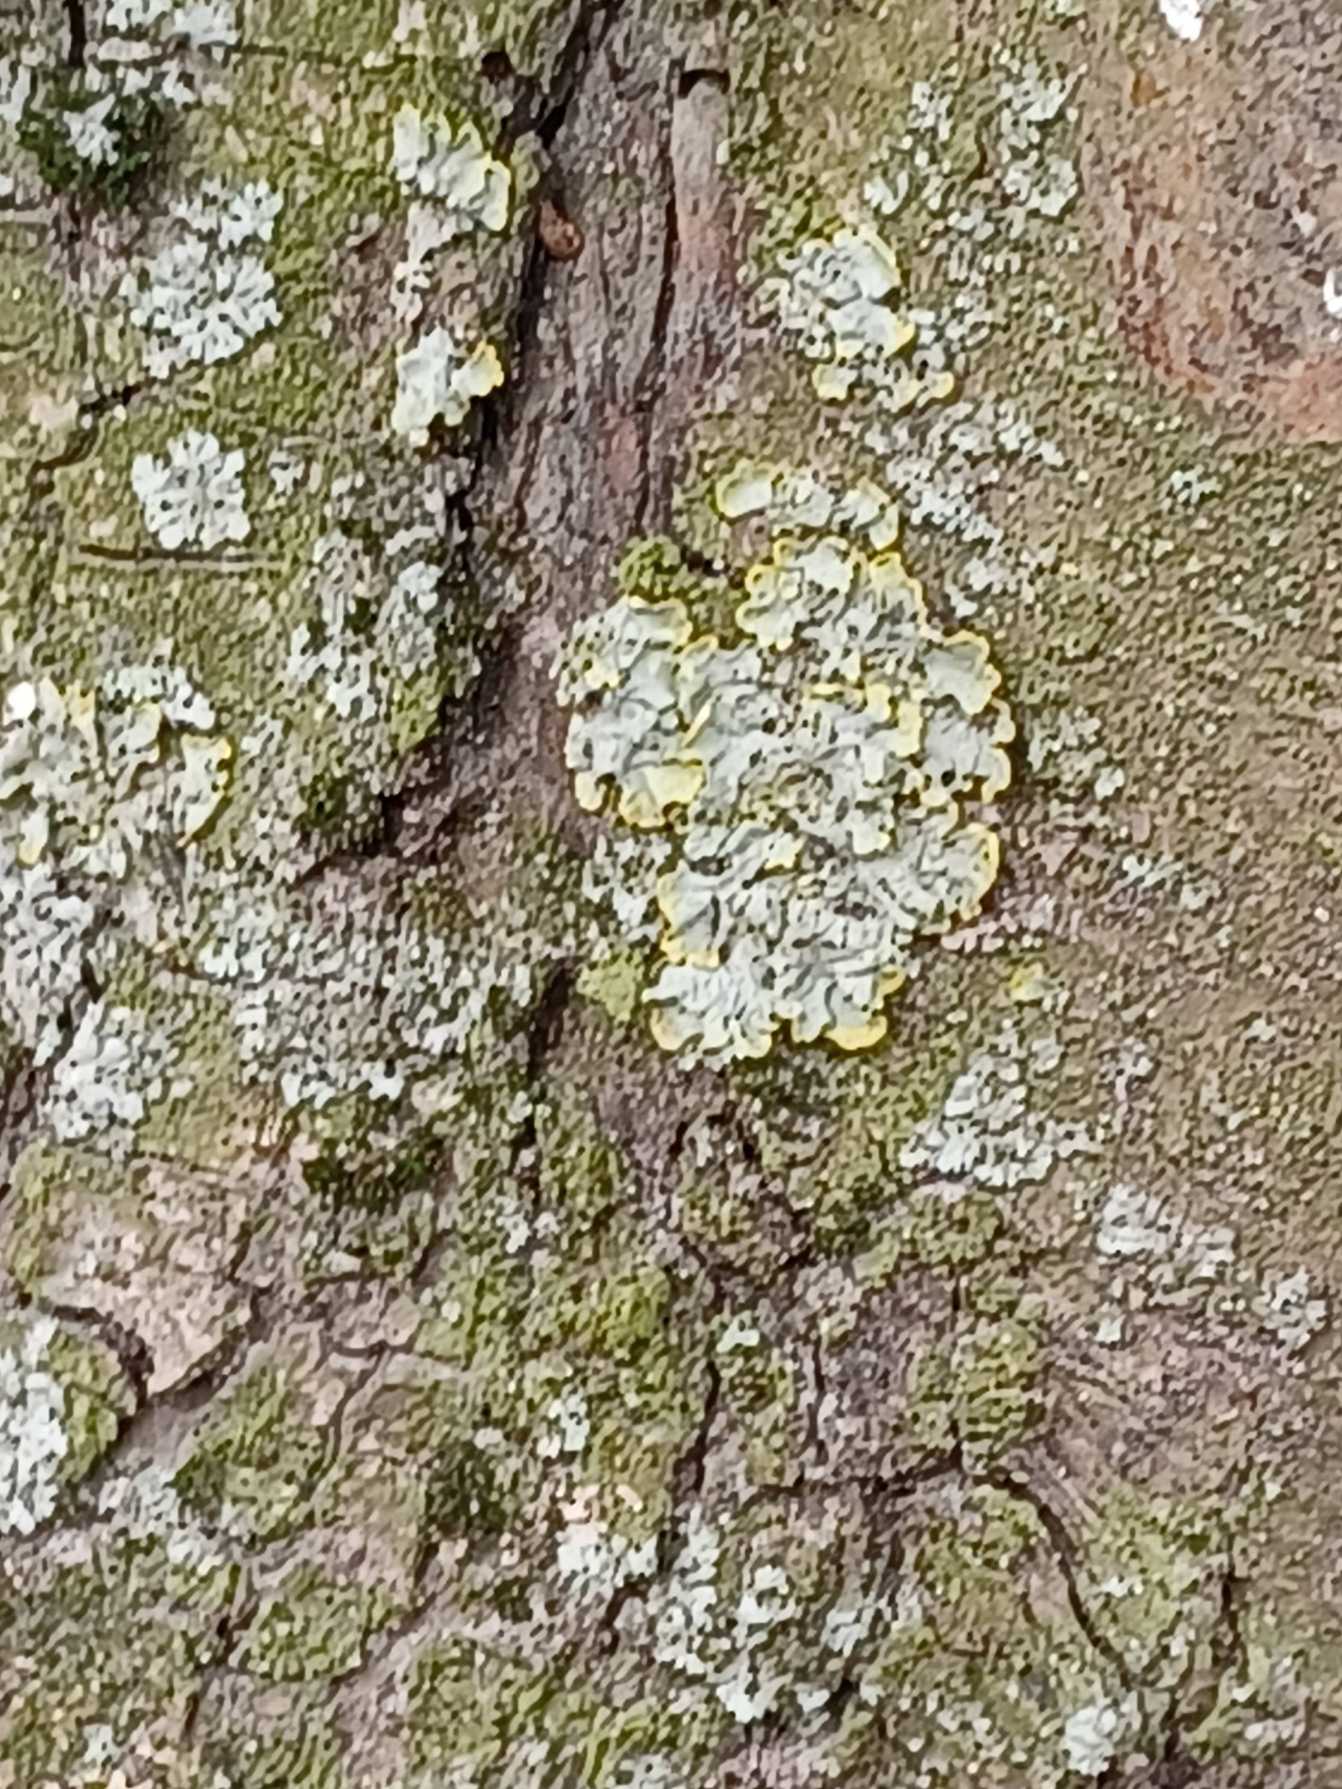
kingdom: Fungi
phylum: Ascomycota
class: Lecanoromycetes
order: Teloschistales
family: Teloschistaceae
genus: Xanthoria
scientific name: Xanthoria parietina
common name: Almindelig væggelav
